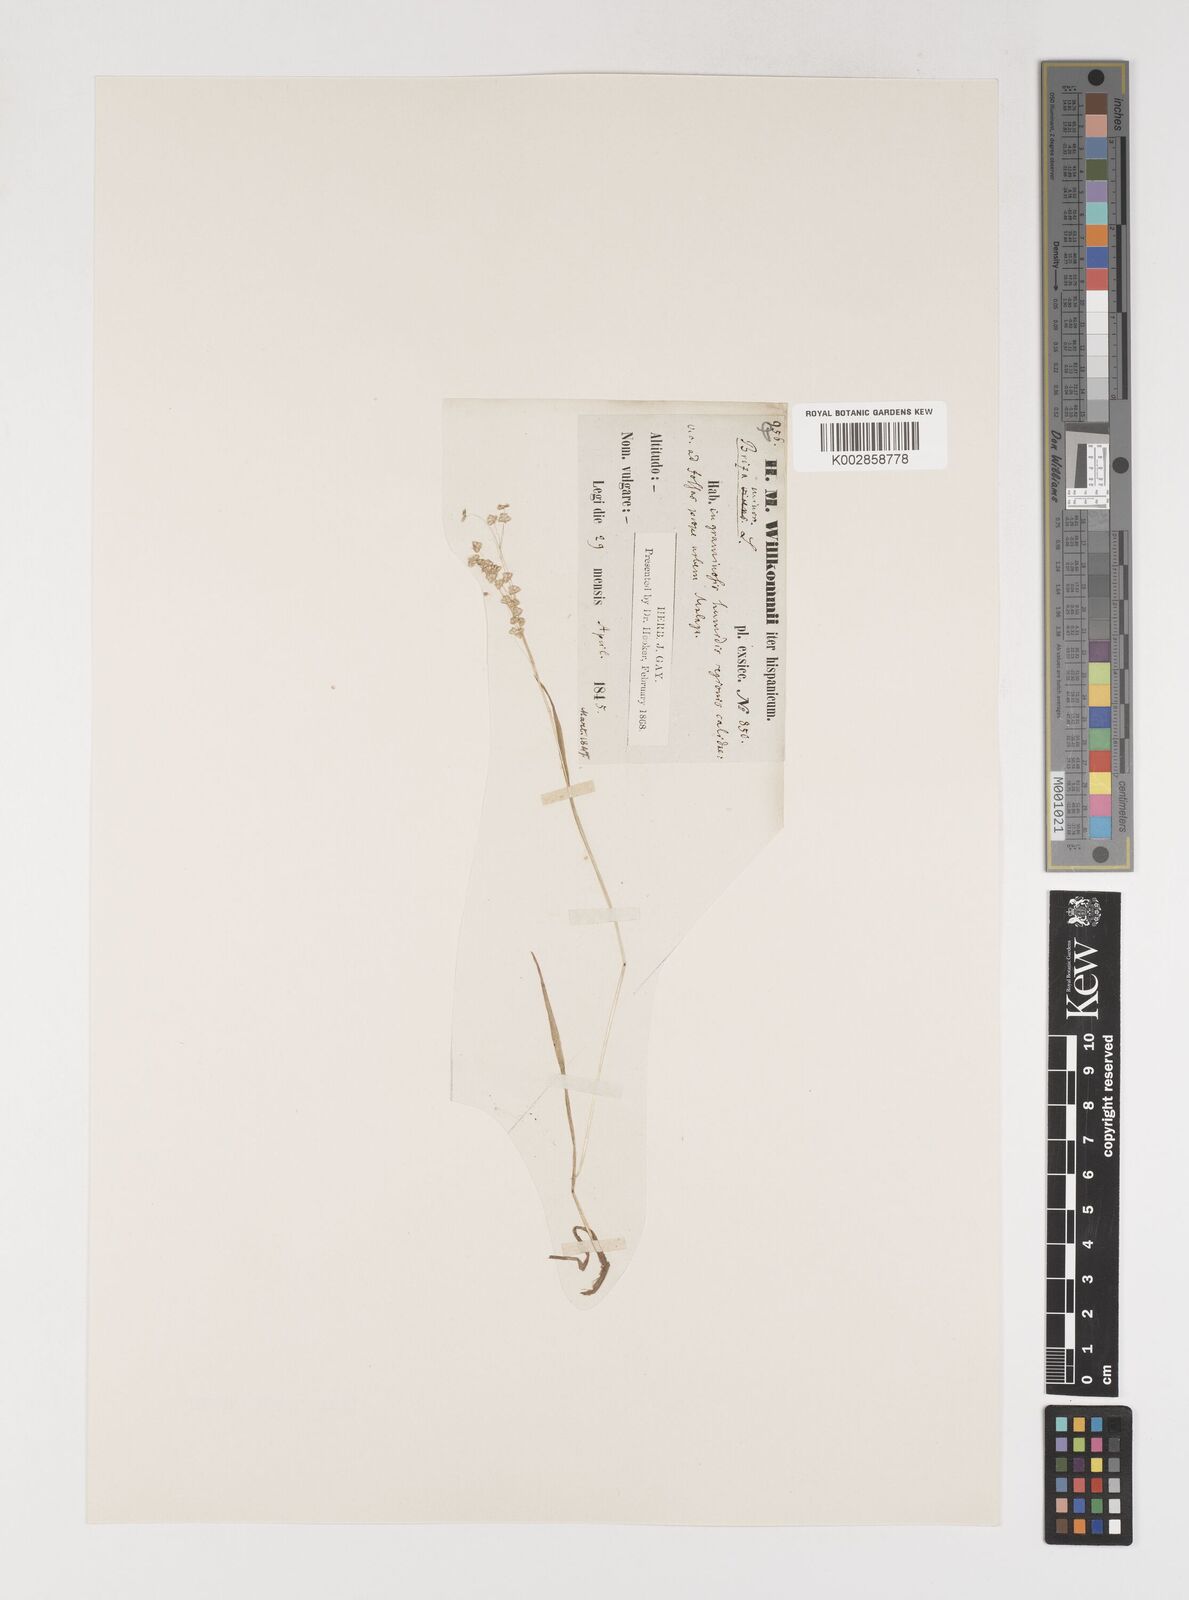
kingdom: Plantae
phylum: Tracheophyta
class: Liliopsida
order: Poales
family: Poaceae
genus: Briza
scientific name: Briza minor
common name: Lesser quaking-grass
